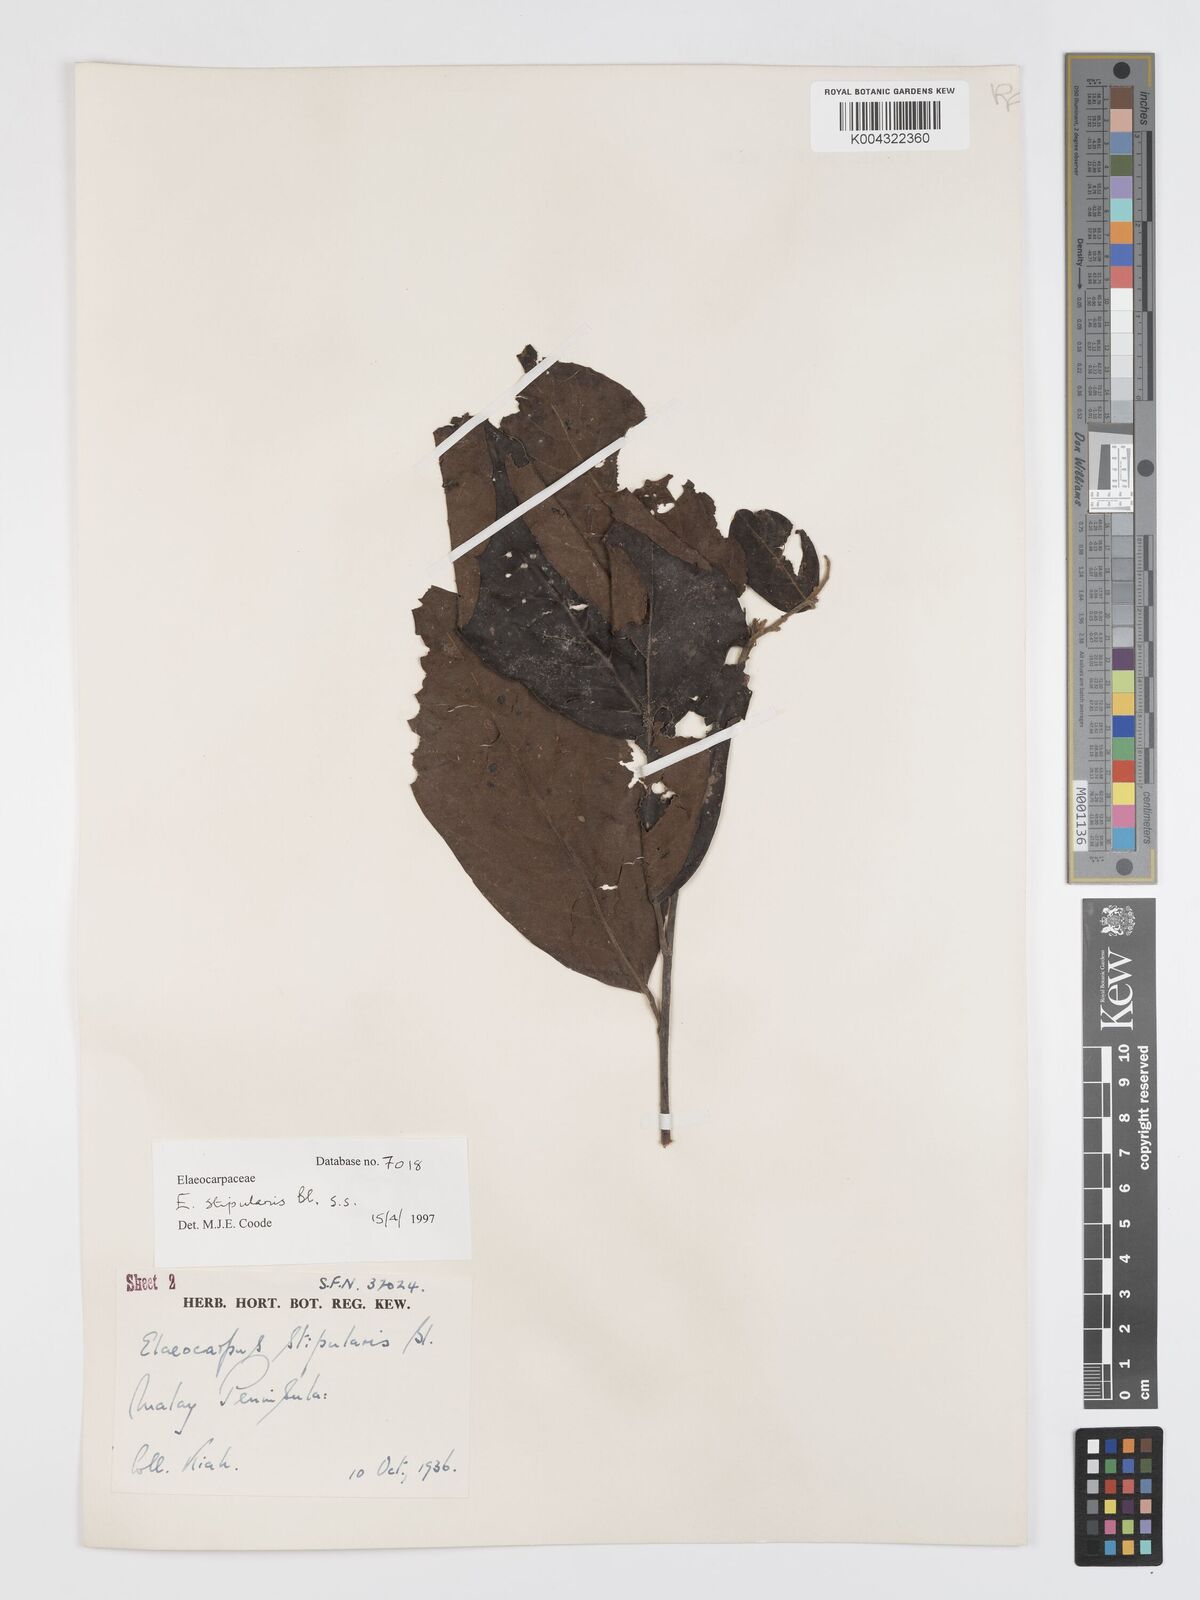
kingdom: Plantae
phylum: Tracheophyta
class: Magnoliopsida
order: Oxalidales
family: Elaeocarpaceae
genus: Elaeocarpus
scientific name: Elaeocarpus stipularis
